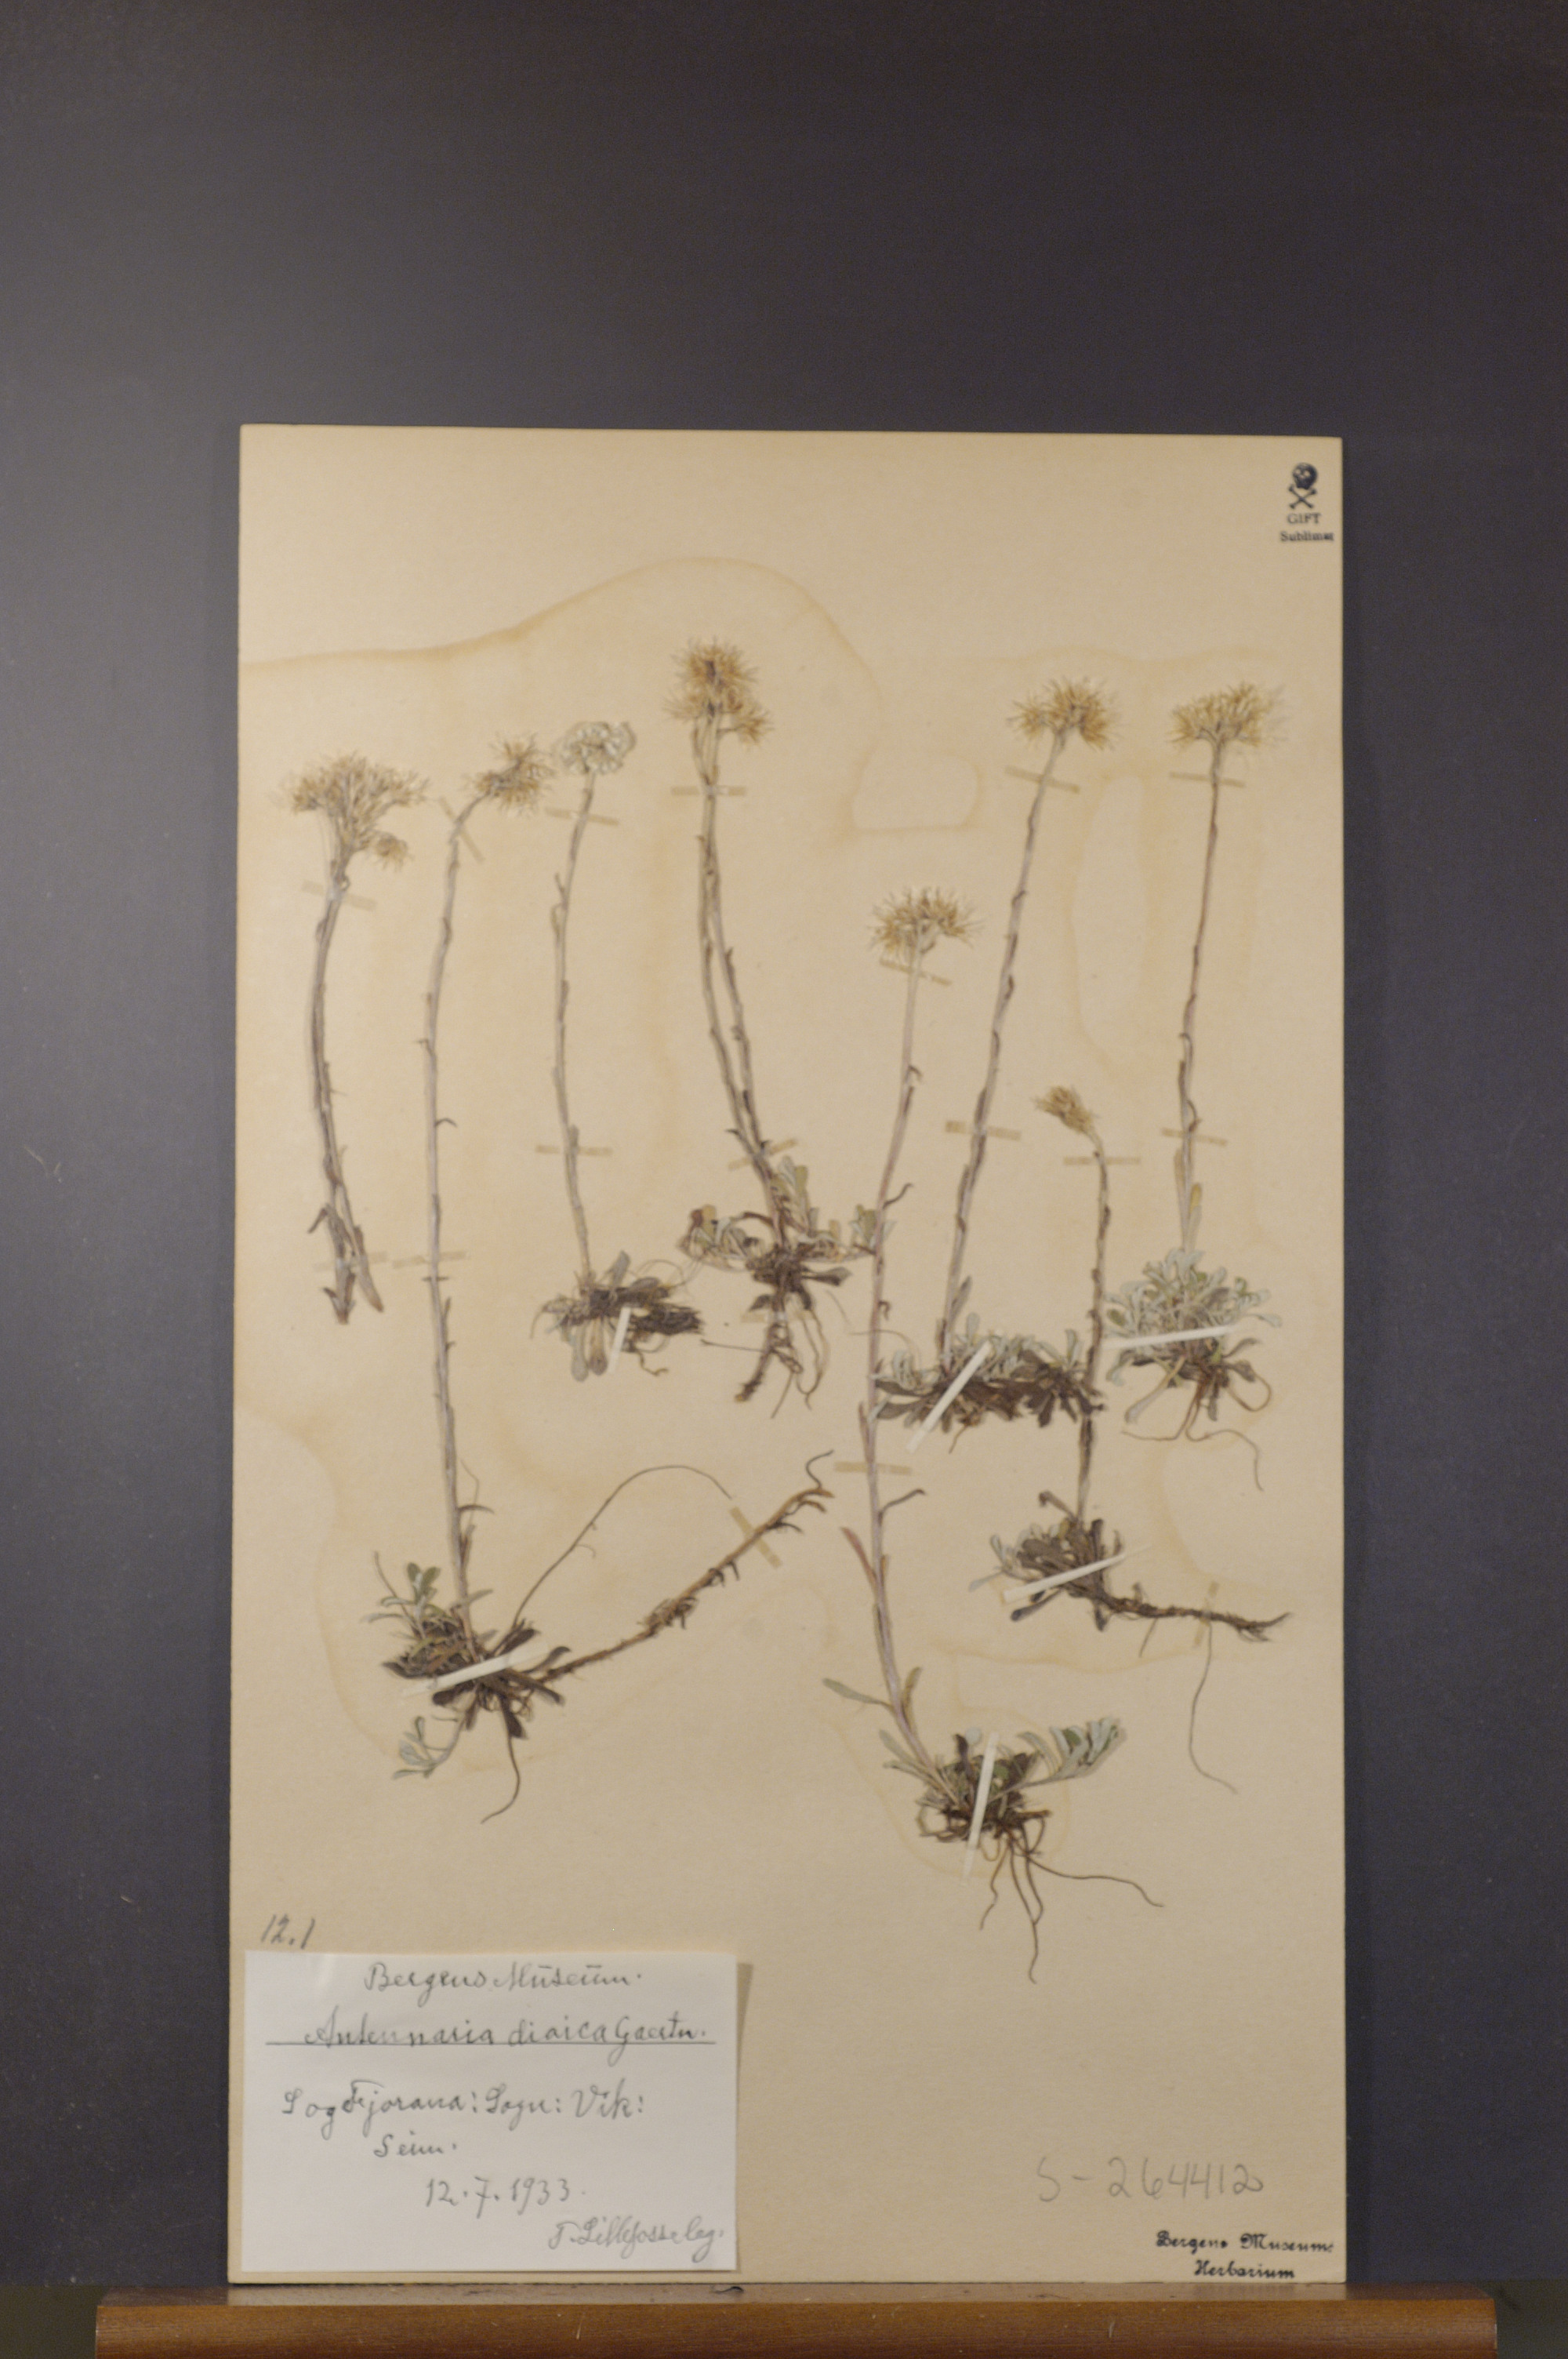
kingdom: Plantae
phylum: Tracheophyta
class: Magnoliopsida
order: Asterales
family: Asteraceae
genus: Antennaria
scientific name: Antennaria dioica
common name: Mountain everlasting
